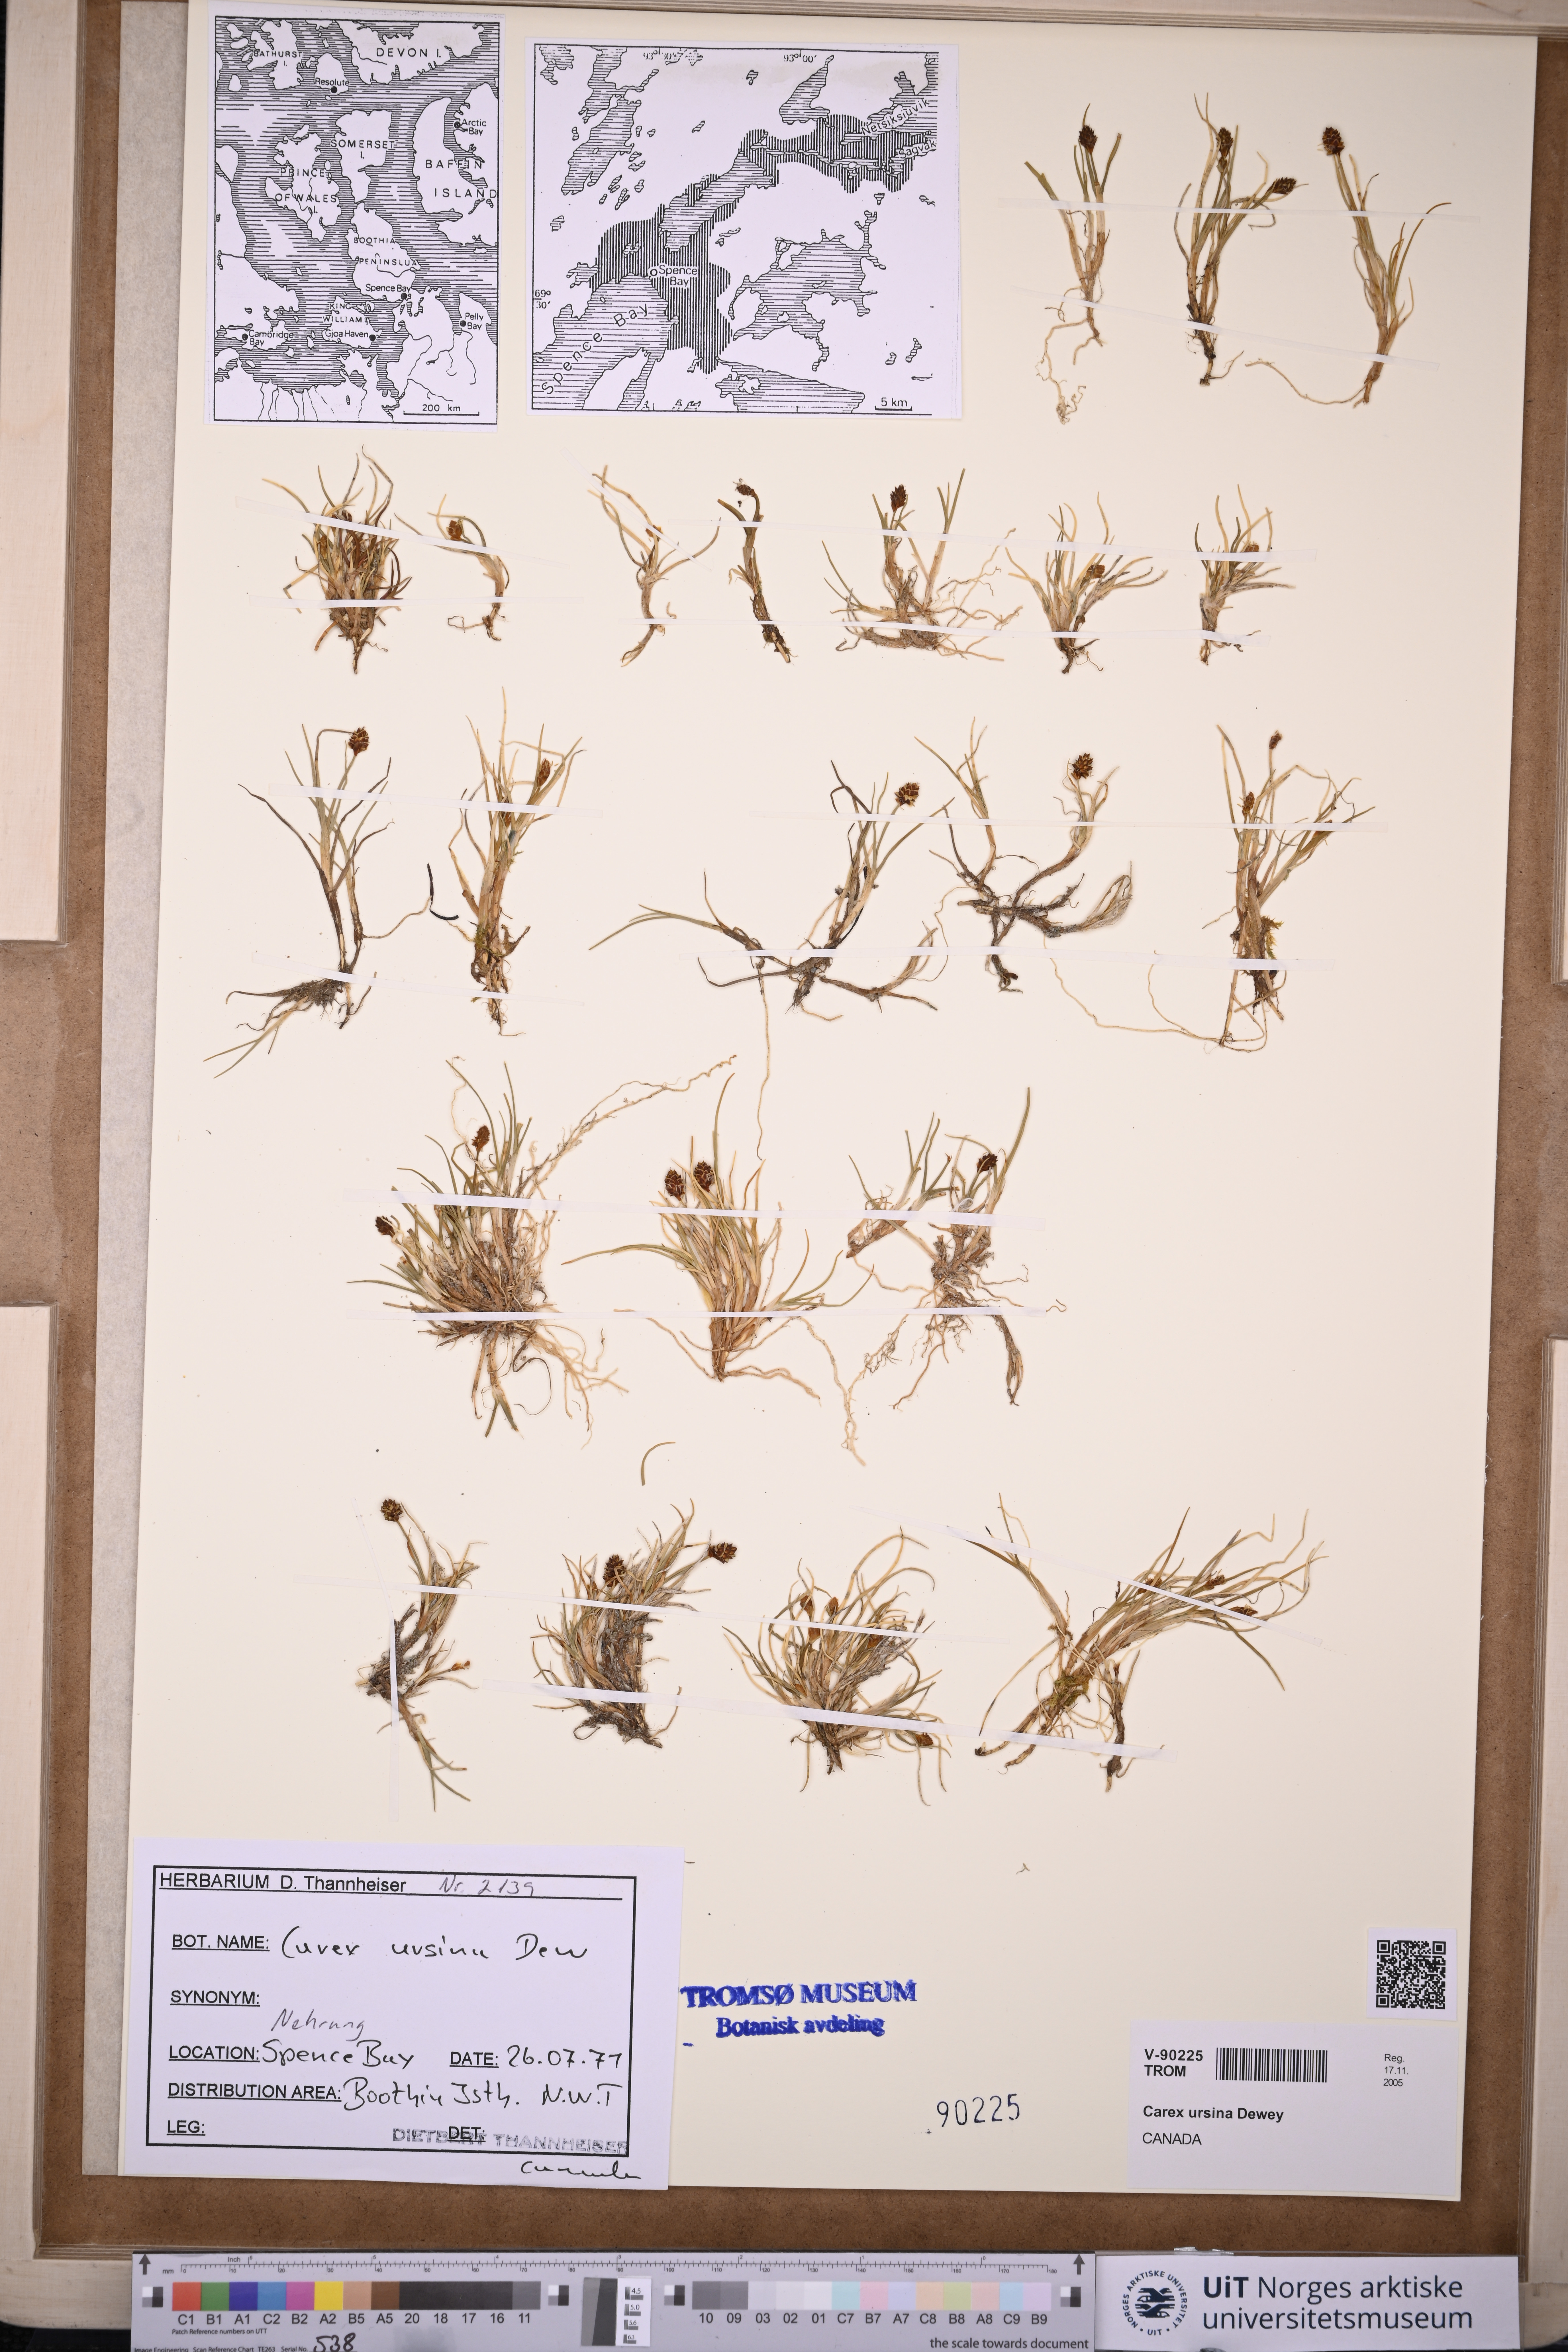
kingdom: Plantae
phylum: Tracheophyta
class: Liliopsida
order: Poales
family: Cyperaceae
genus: Carex
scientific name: Carex ursina
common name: Bear sedge
